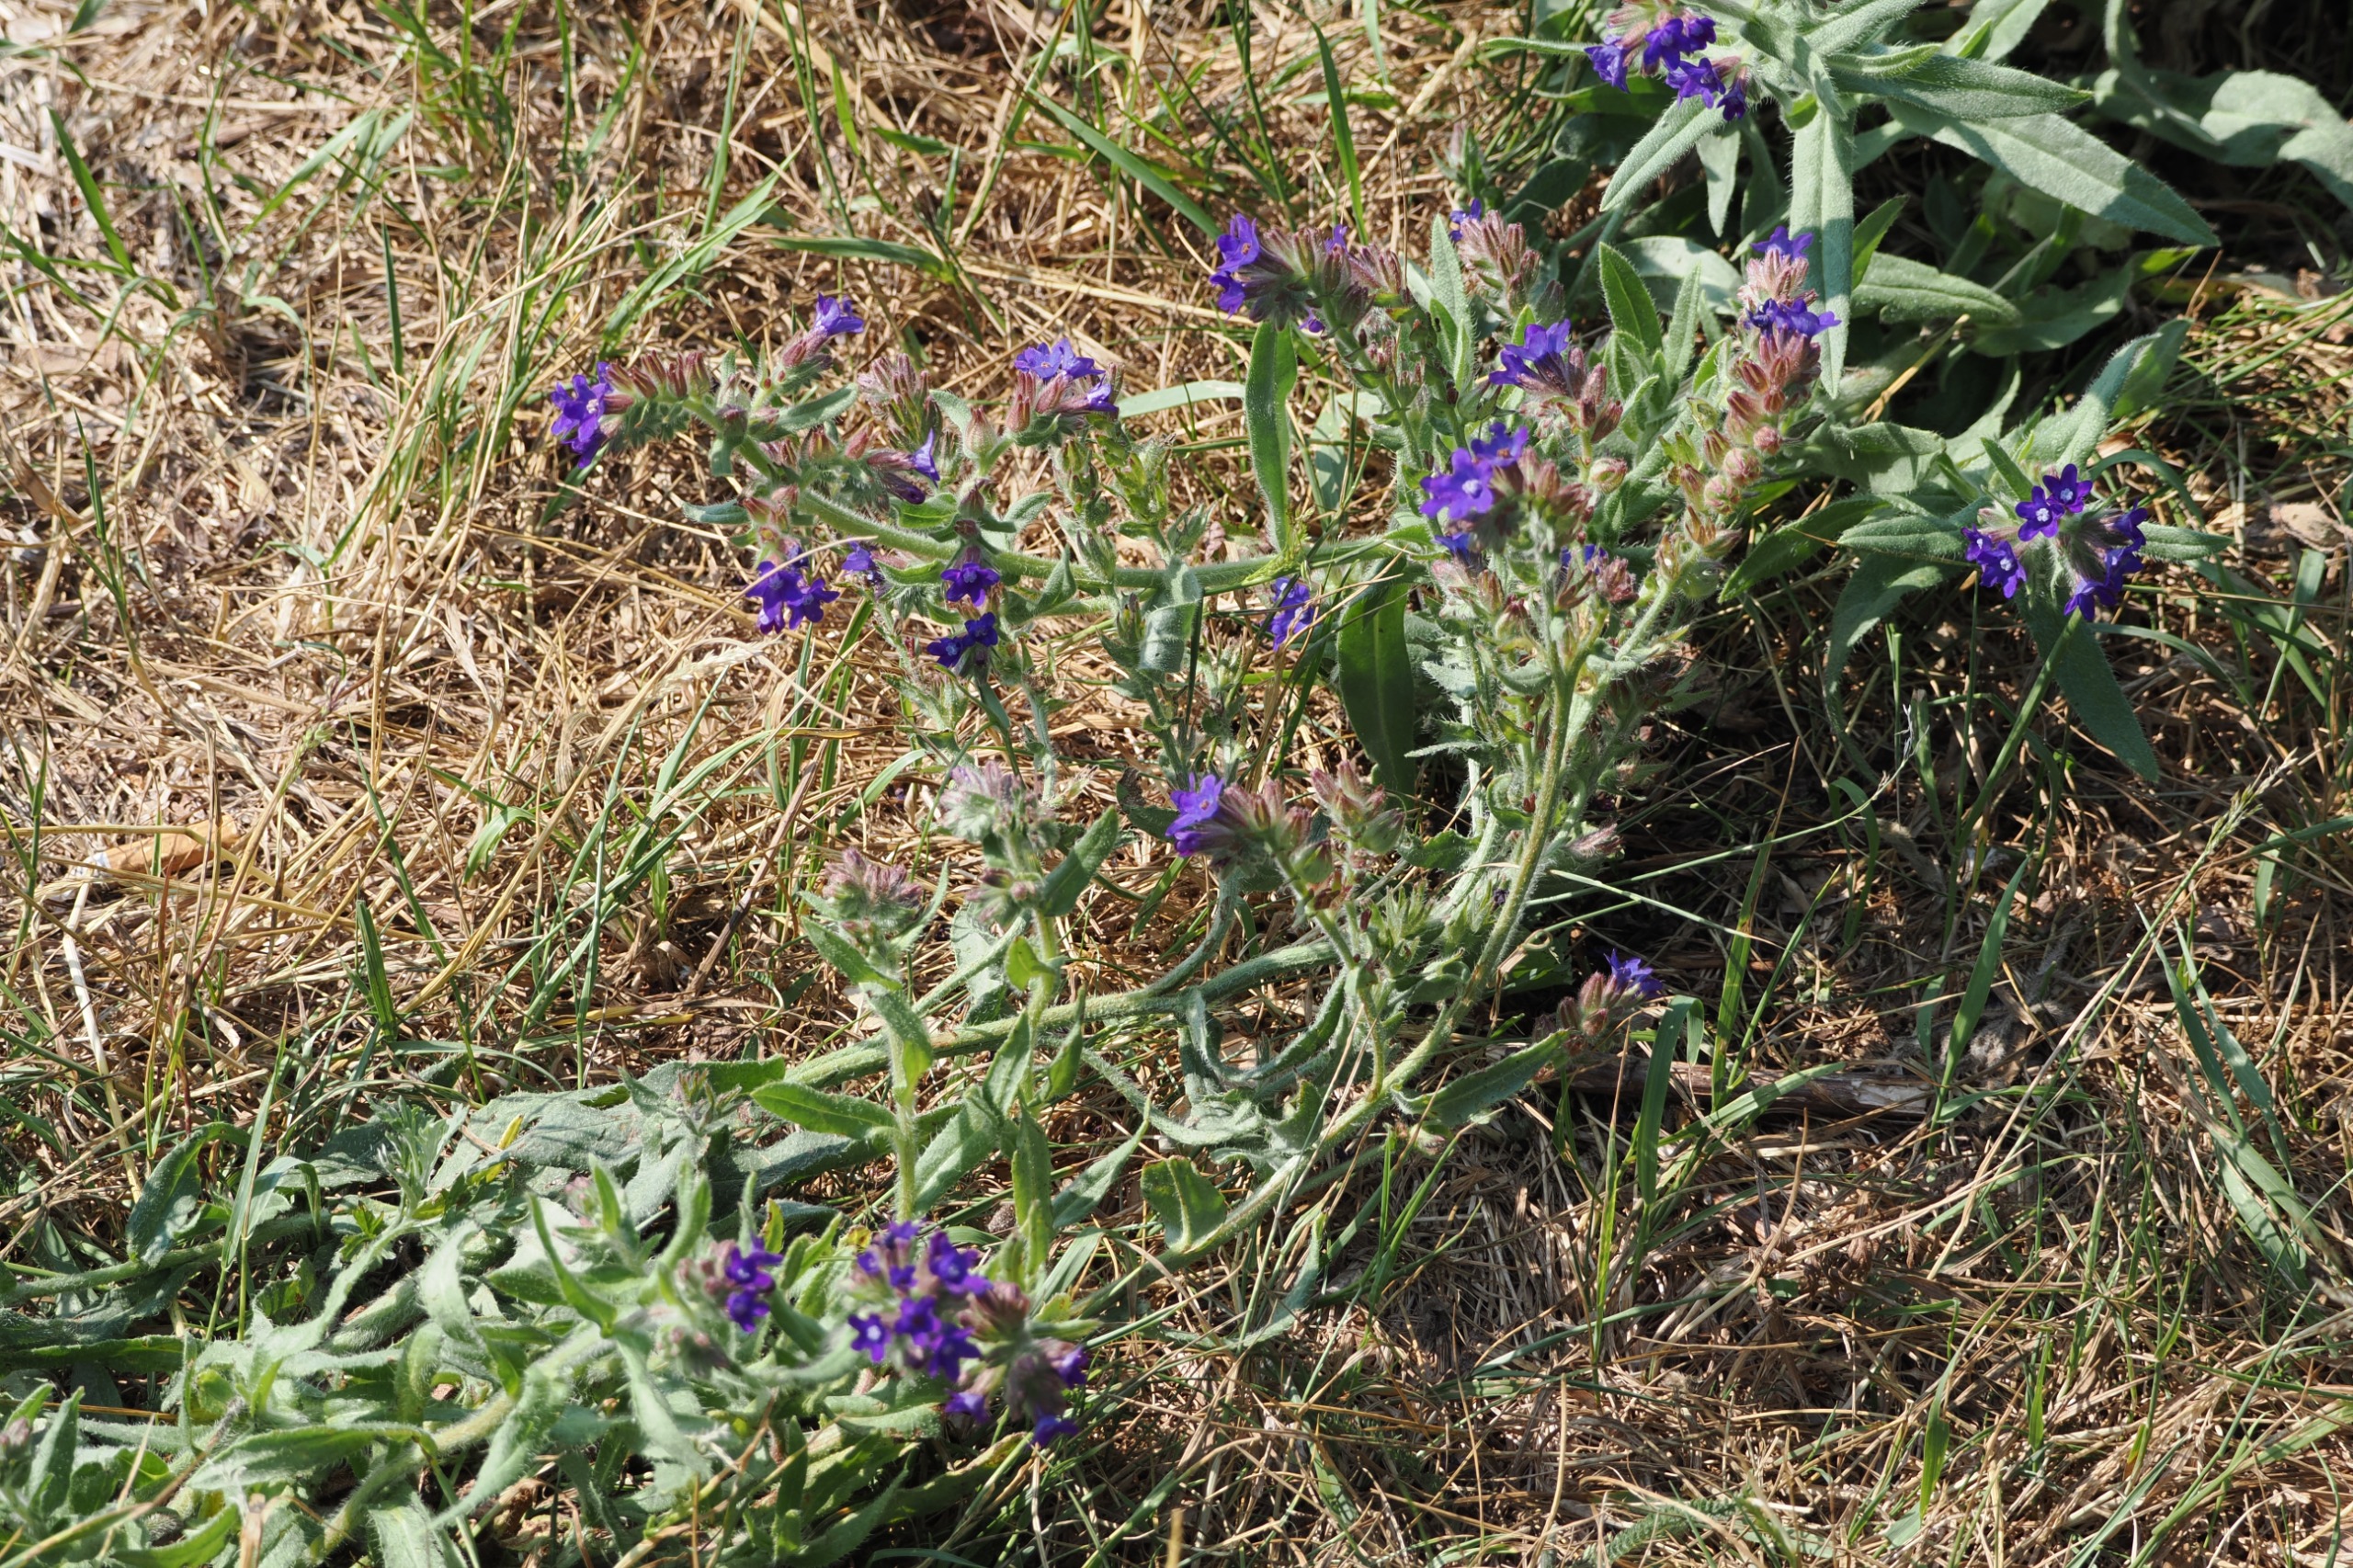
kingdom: Plantae
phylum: Tracheophyta
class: Magnoliopsida
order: Boraginales
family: Boraginaceae
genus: Anchusa
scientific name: Anchusa officinalis
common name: Læge-oksetunge
